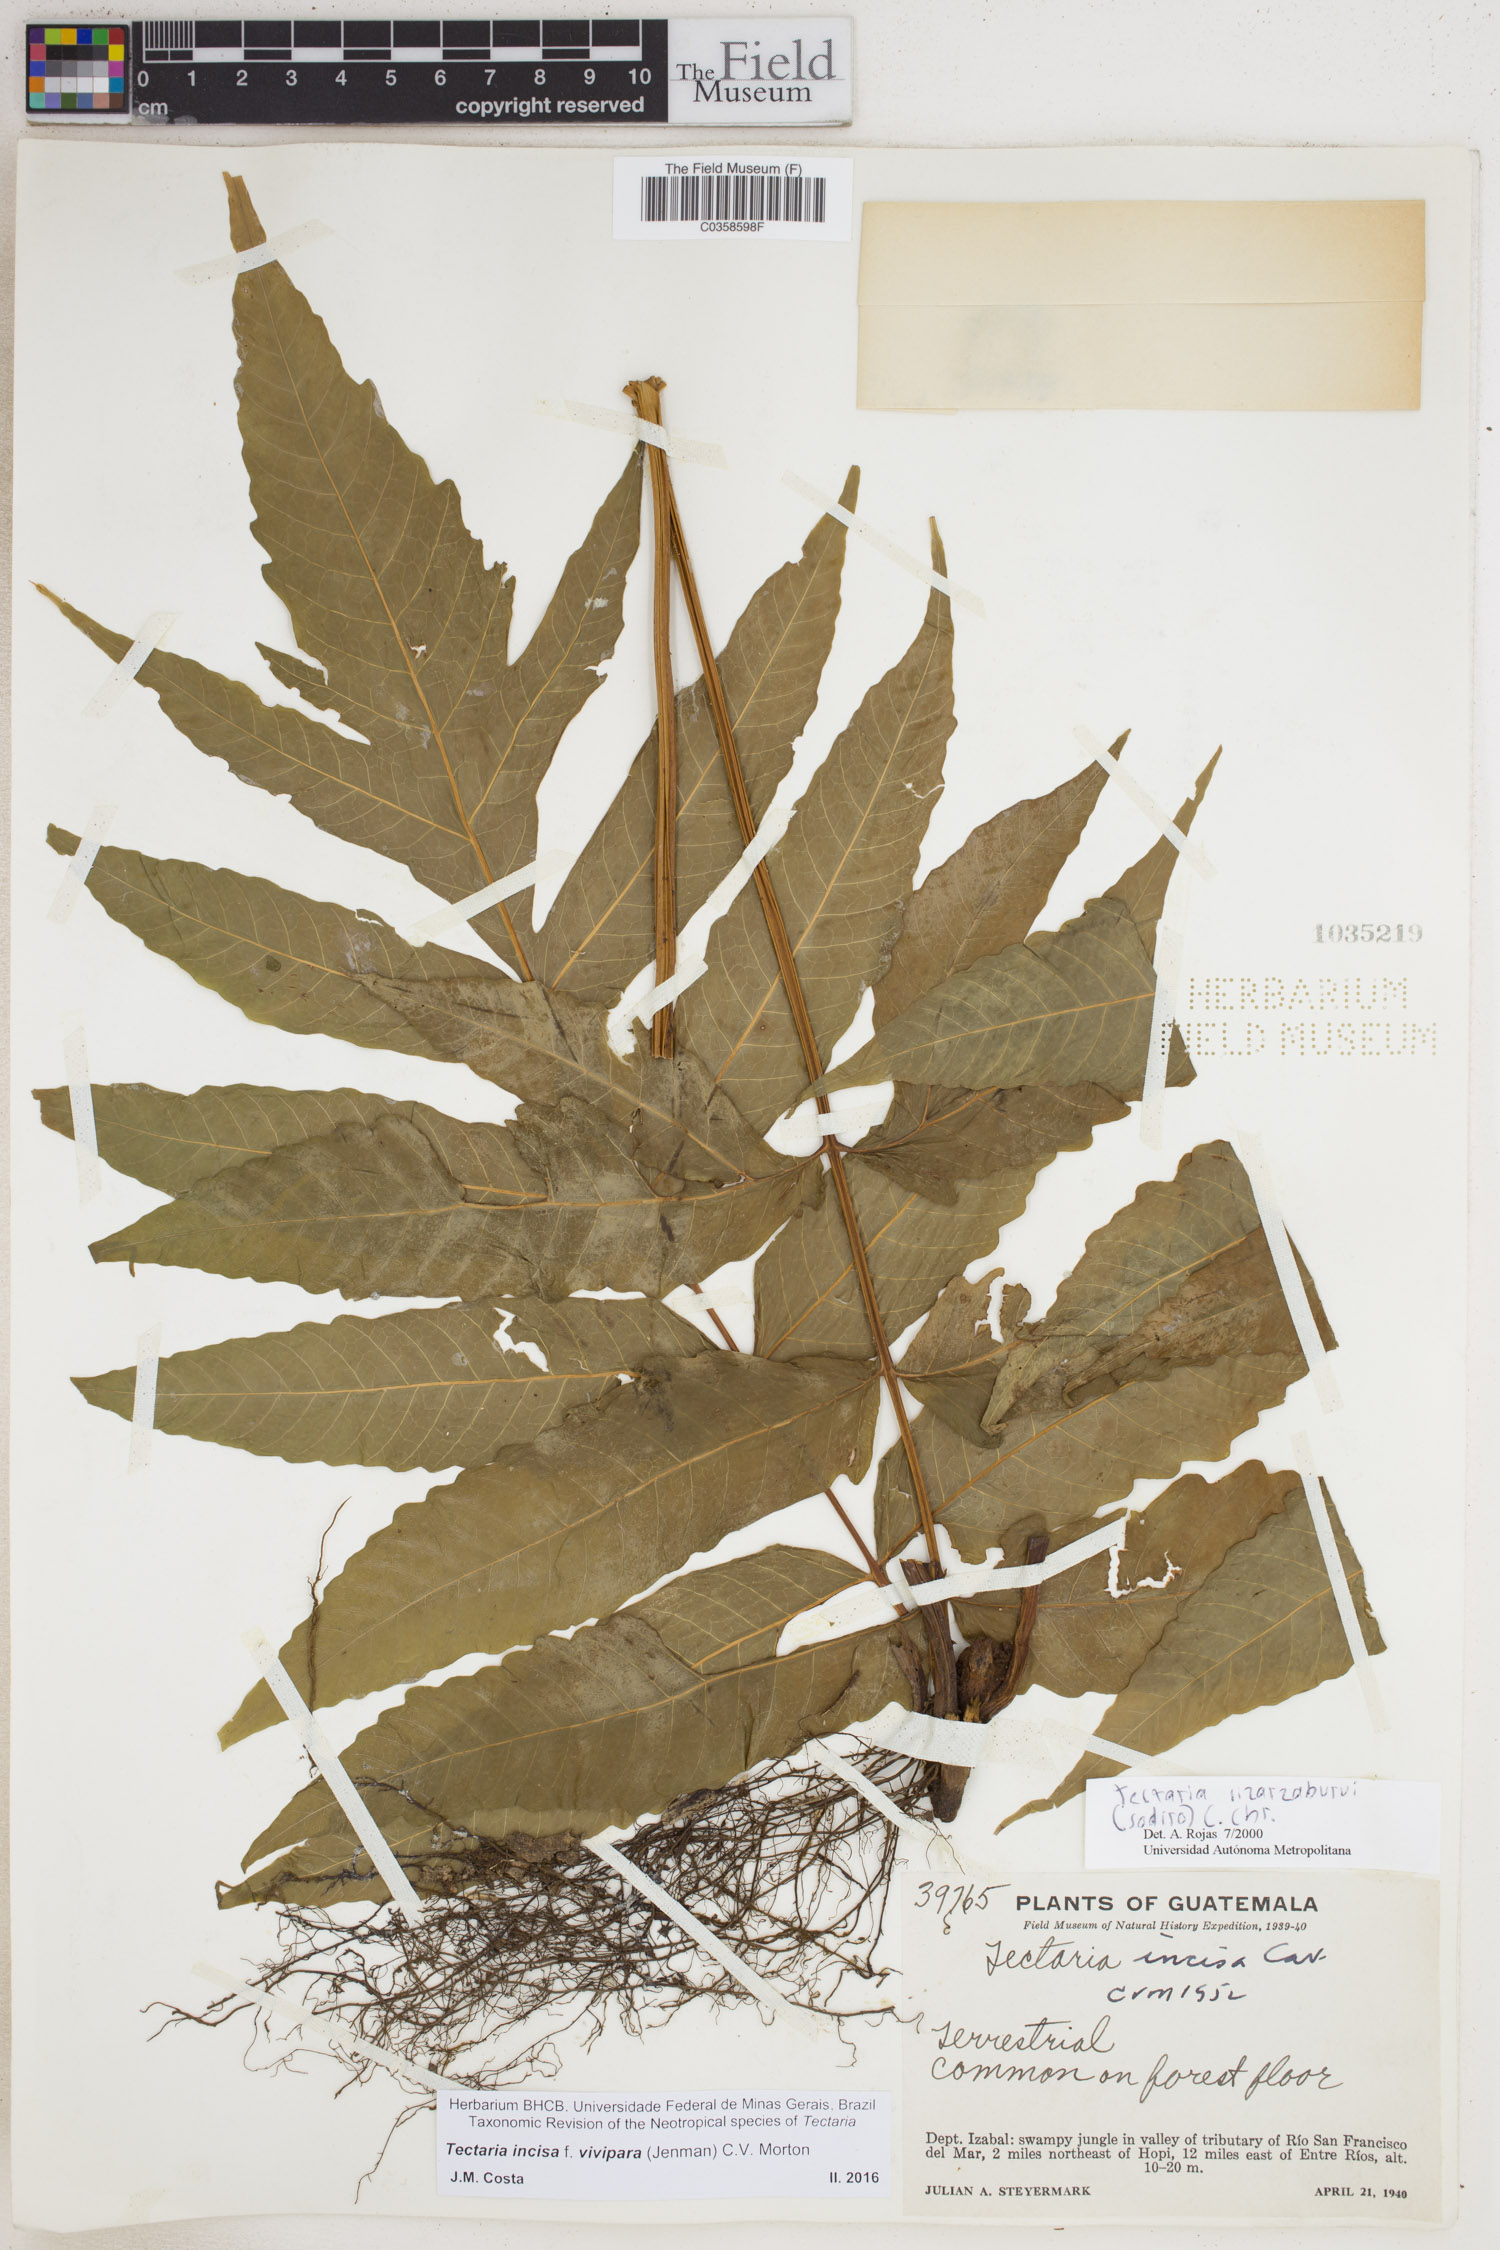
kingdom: Plantae
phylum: Tracheophyta
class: Polypodiopsida
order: Polypodiales
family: Tectariaceae
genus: Tectaria
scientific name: Tectaria incisa
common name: Incised halberd fern
